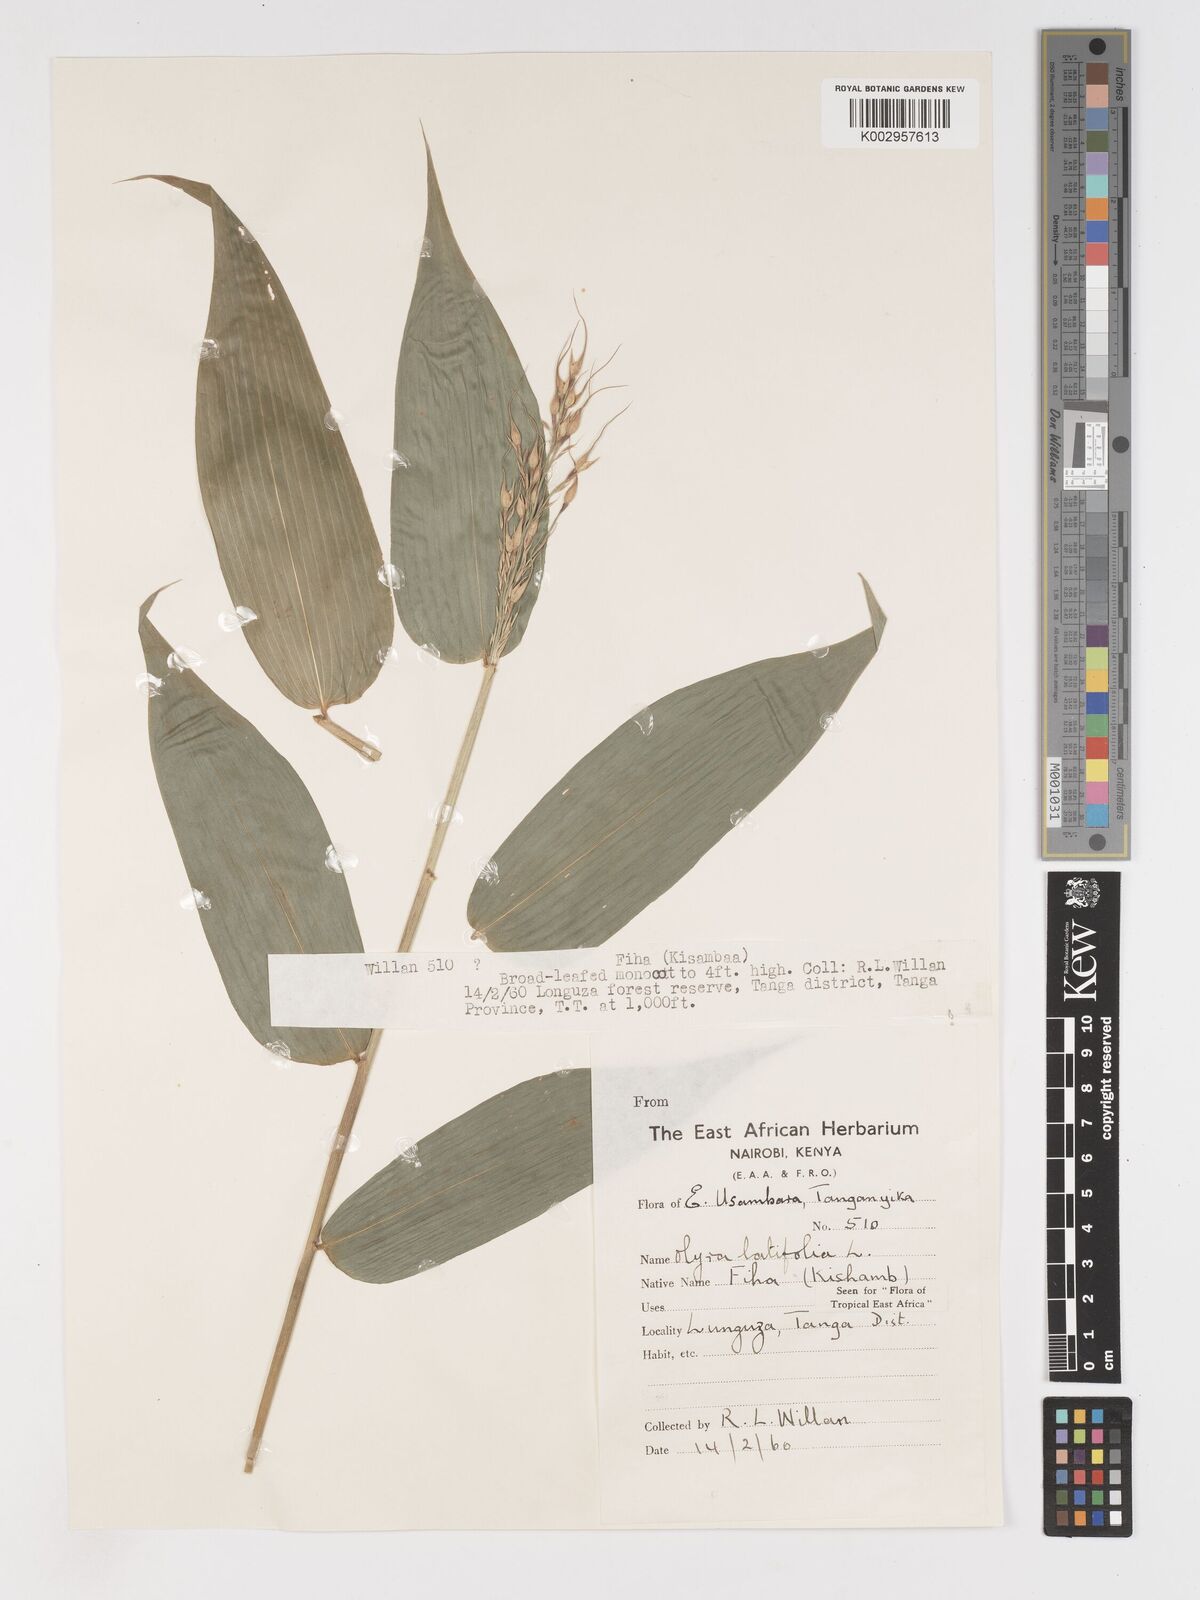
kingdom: Plantae
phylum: Tracheophyta
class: Liliopsida
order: Poales
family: Poaceae
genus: Olyra
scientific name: Olyra latifolia
